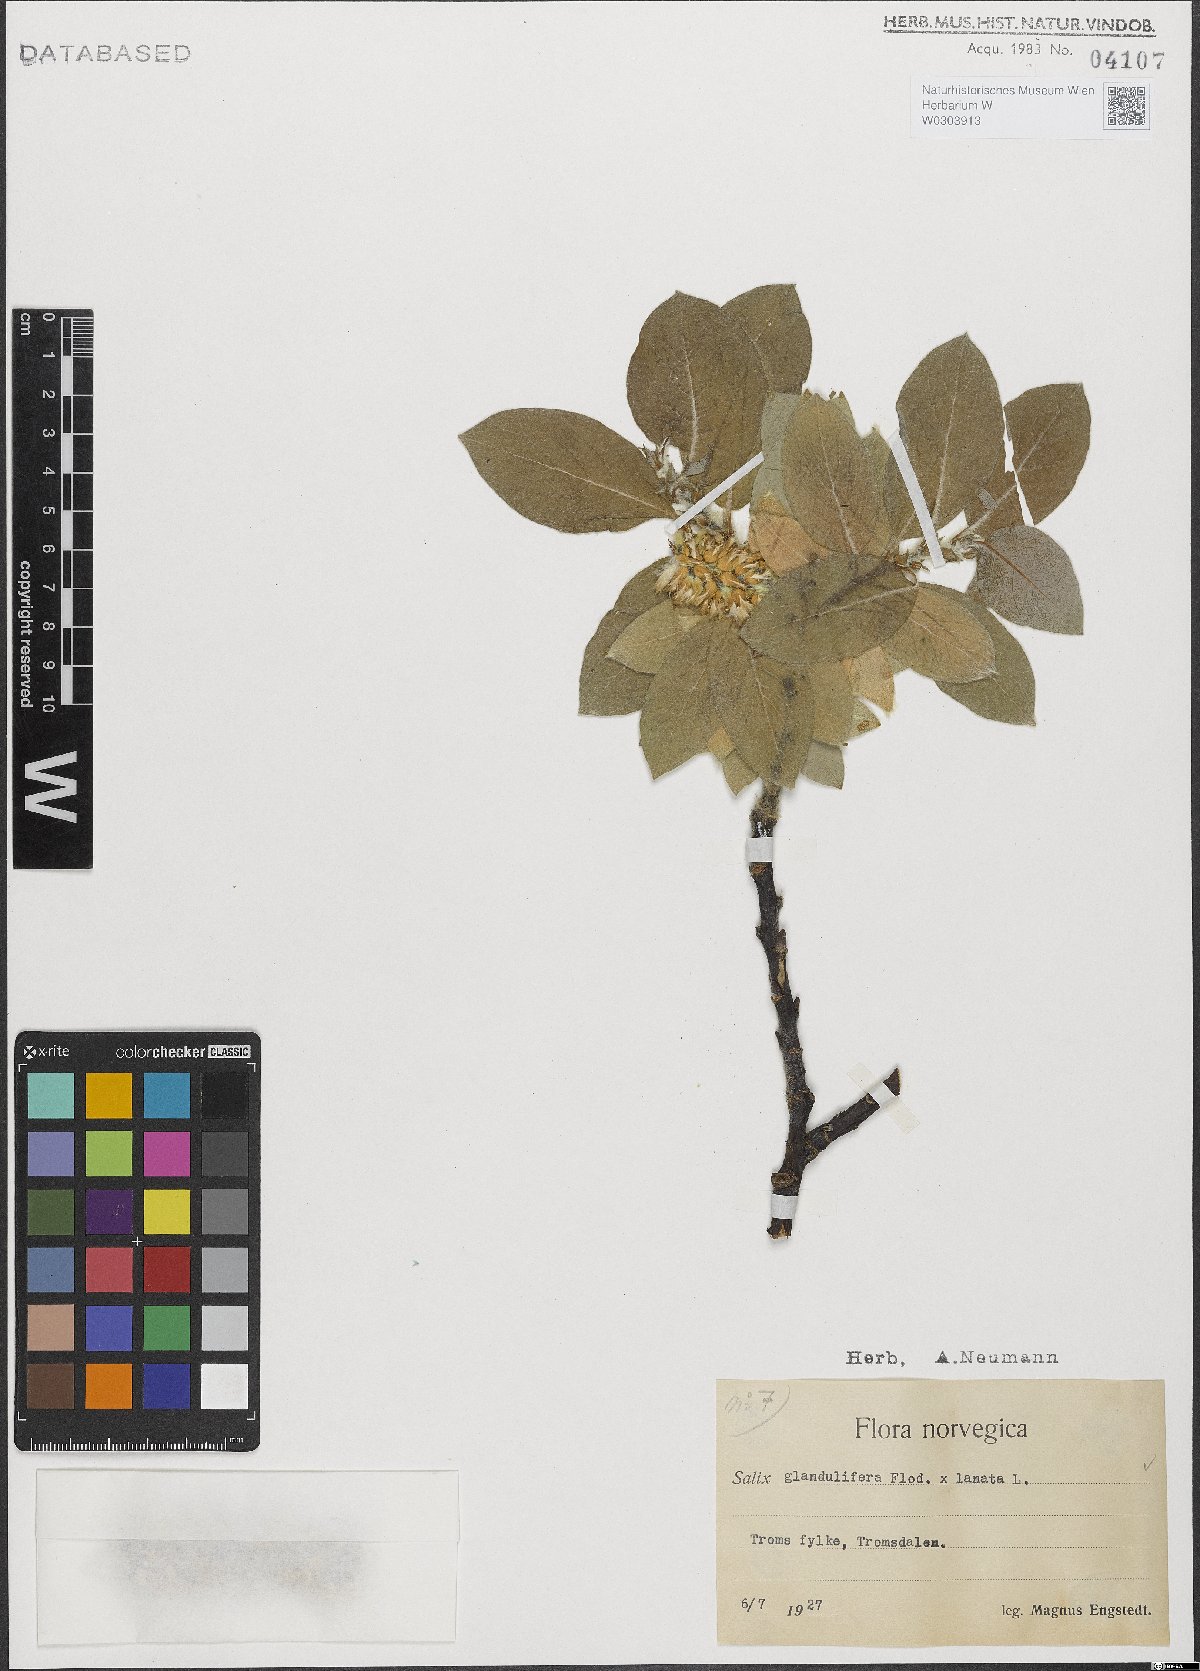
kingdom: Plantae
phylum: Tracheophyta
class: Magnoliopsida
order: Malpighiales
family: Salicaceae
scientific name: Salicaceae
